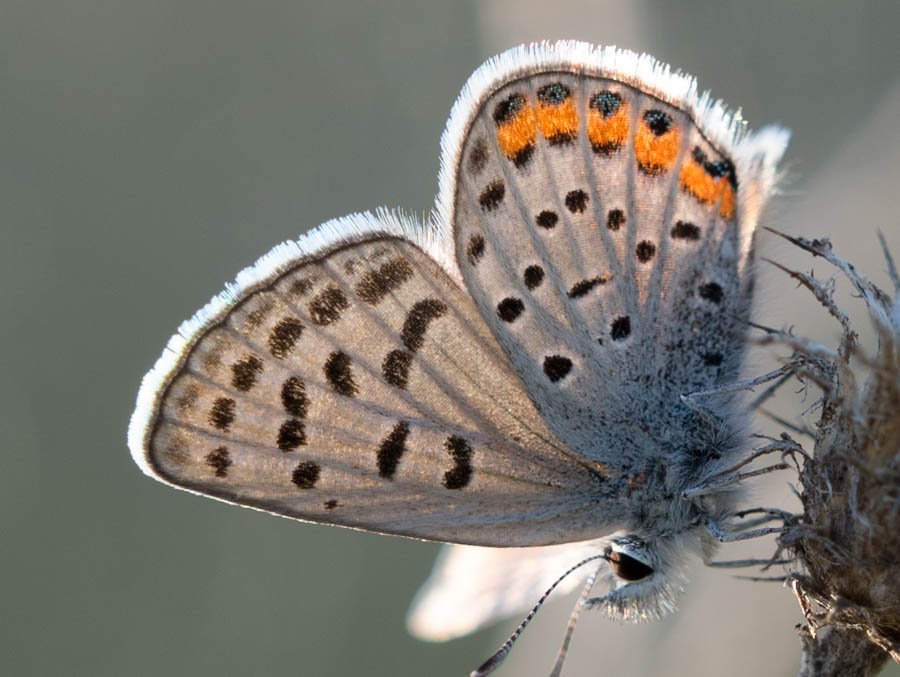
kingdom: Animalia
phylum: Arthropoda
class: Insecta
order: Lepidoptera
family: Lycaenidae
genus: Plebejus
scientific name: Plebejus lupini
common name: Lupine Blue
